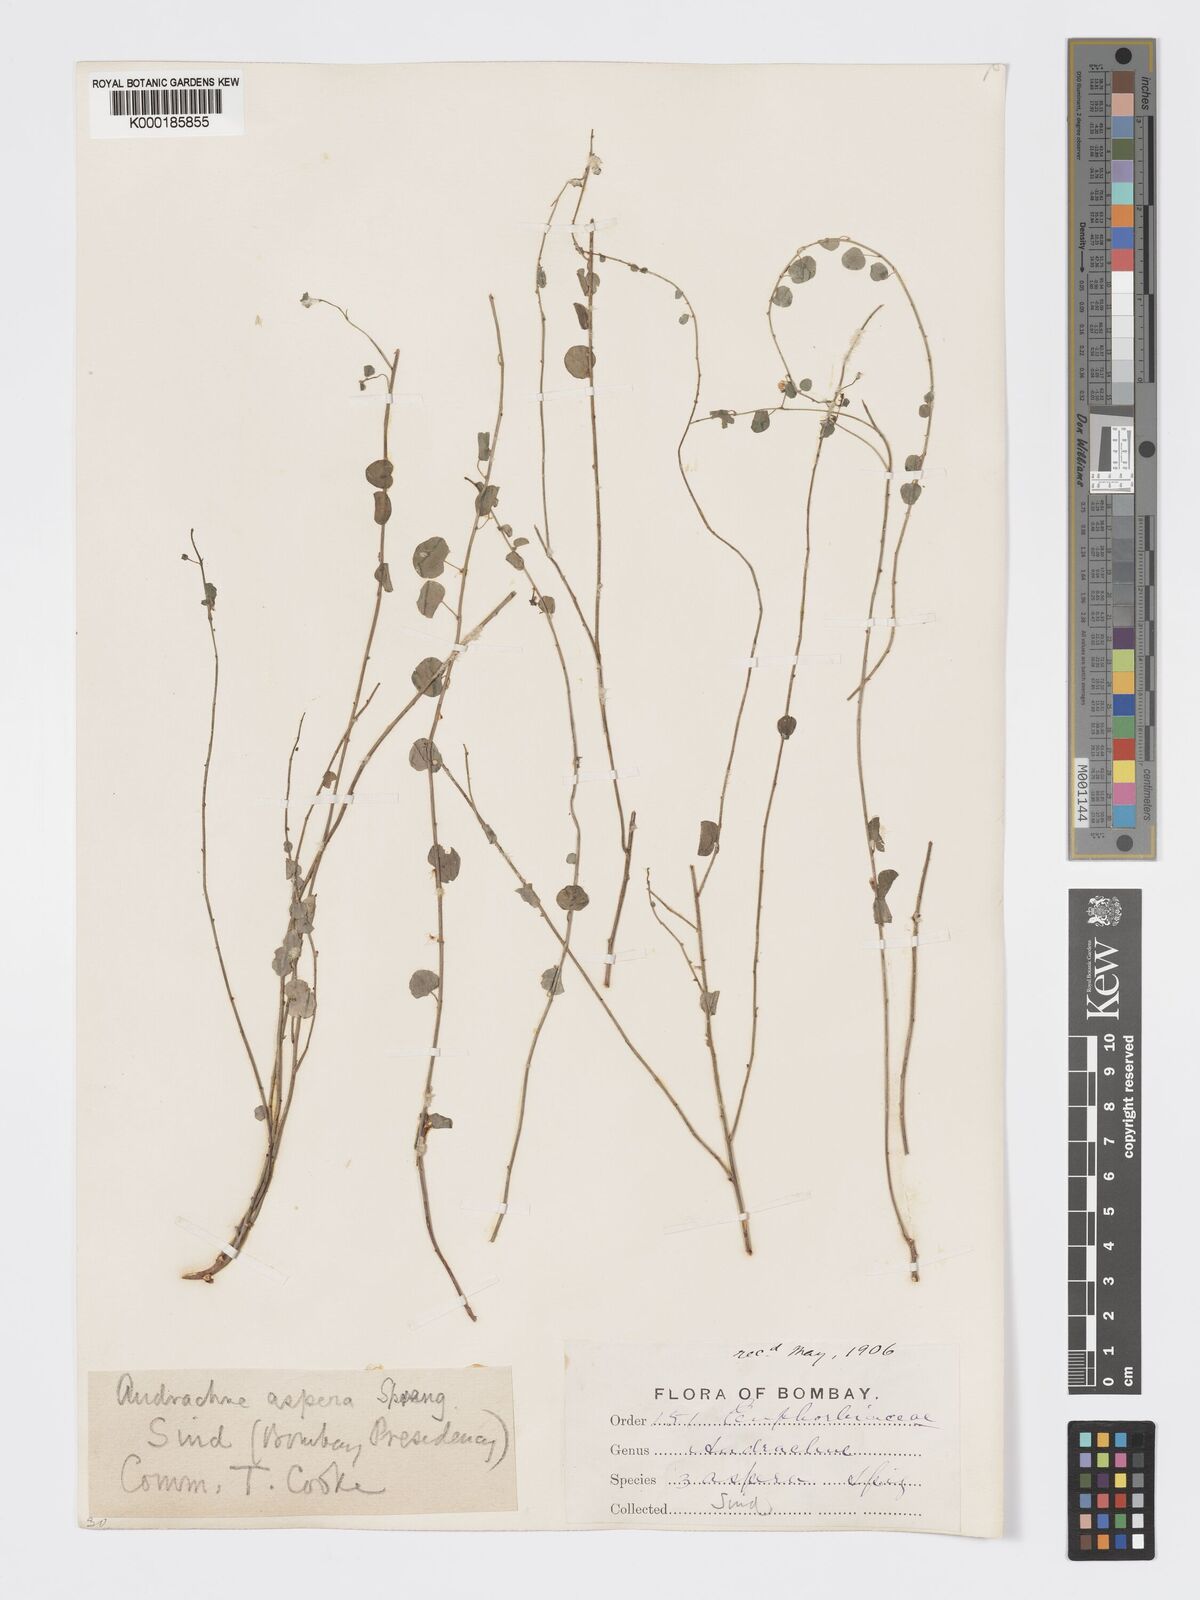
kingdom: Plantae
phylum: Tracheophyta
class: Magnoliopsida
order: Malpighiales
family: Phyllanthaceae
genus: Andrachne
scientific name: Andrachne aspera
